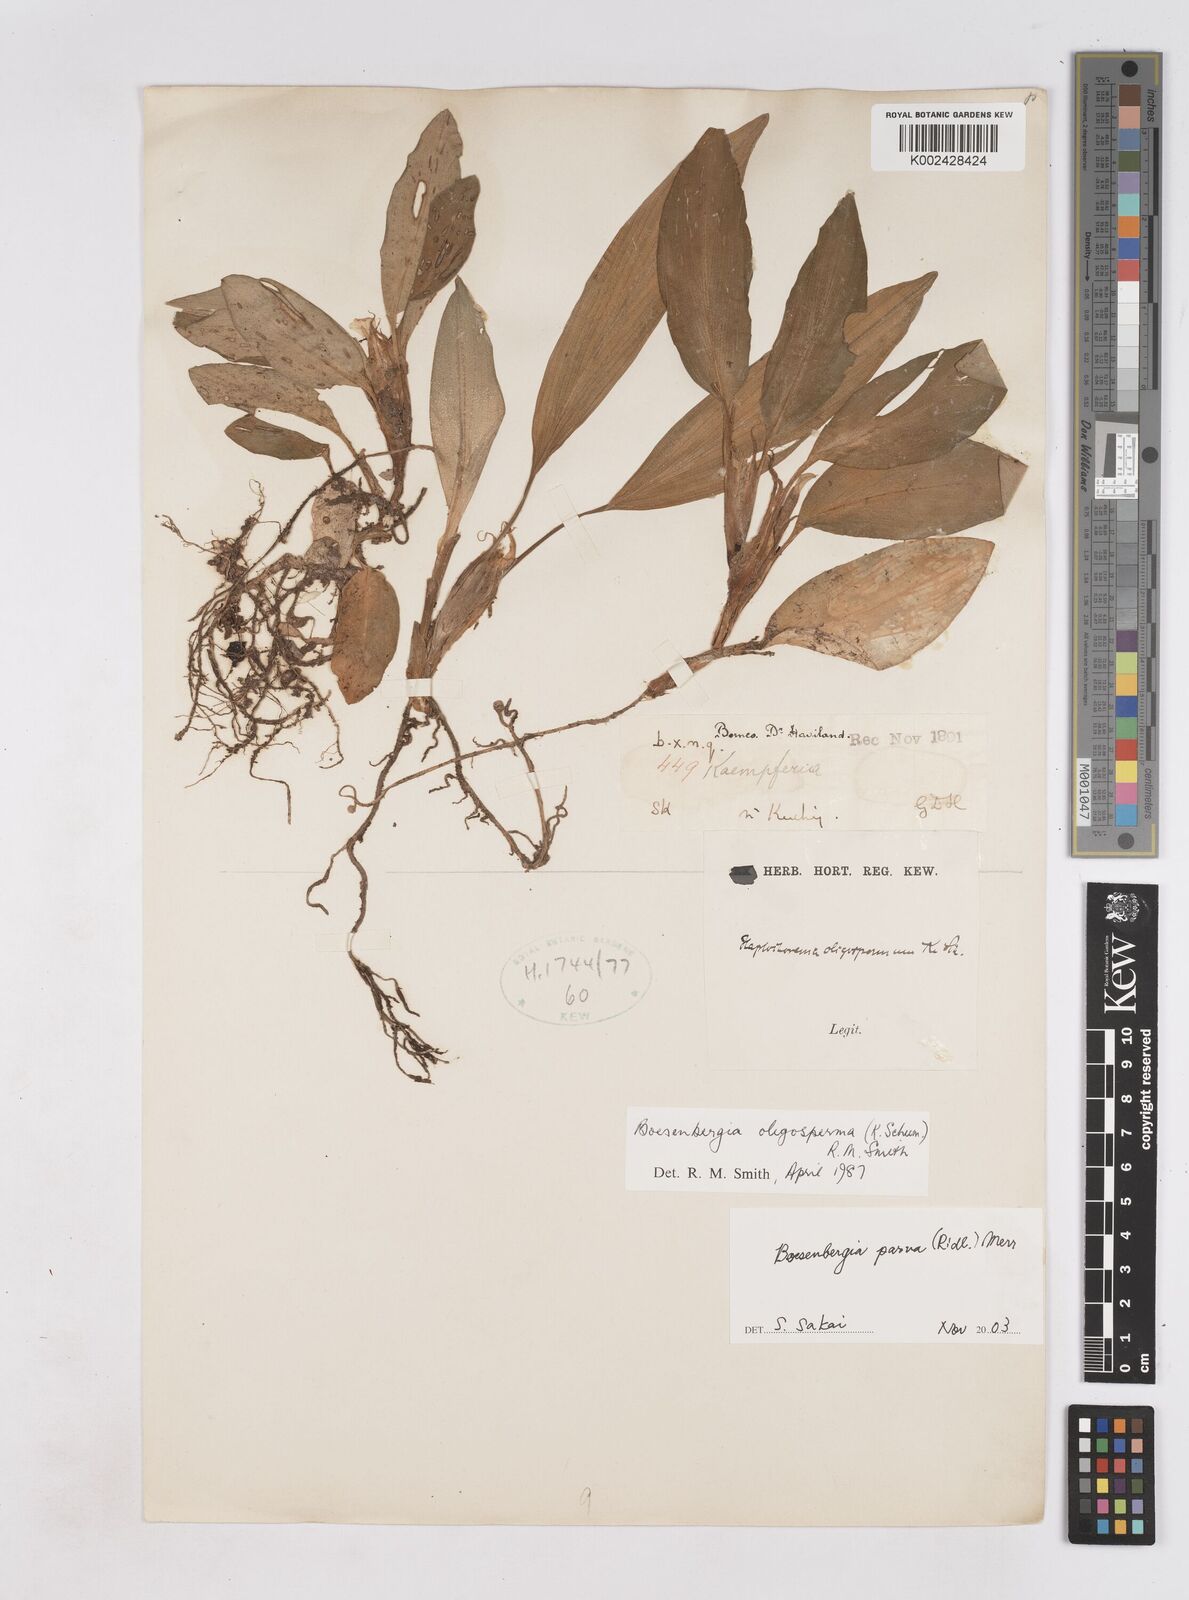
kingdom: Plantae
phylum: Tracheophyta
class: Liliopsida
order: Zingiberales
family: Zingiberaceae
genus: Boesenbergia
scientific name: Boesenbergia parva
